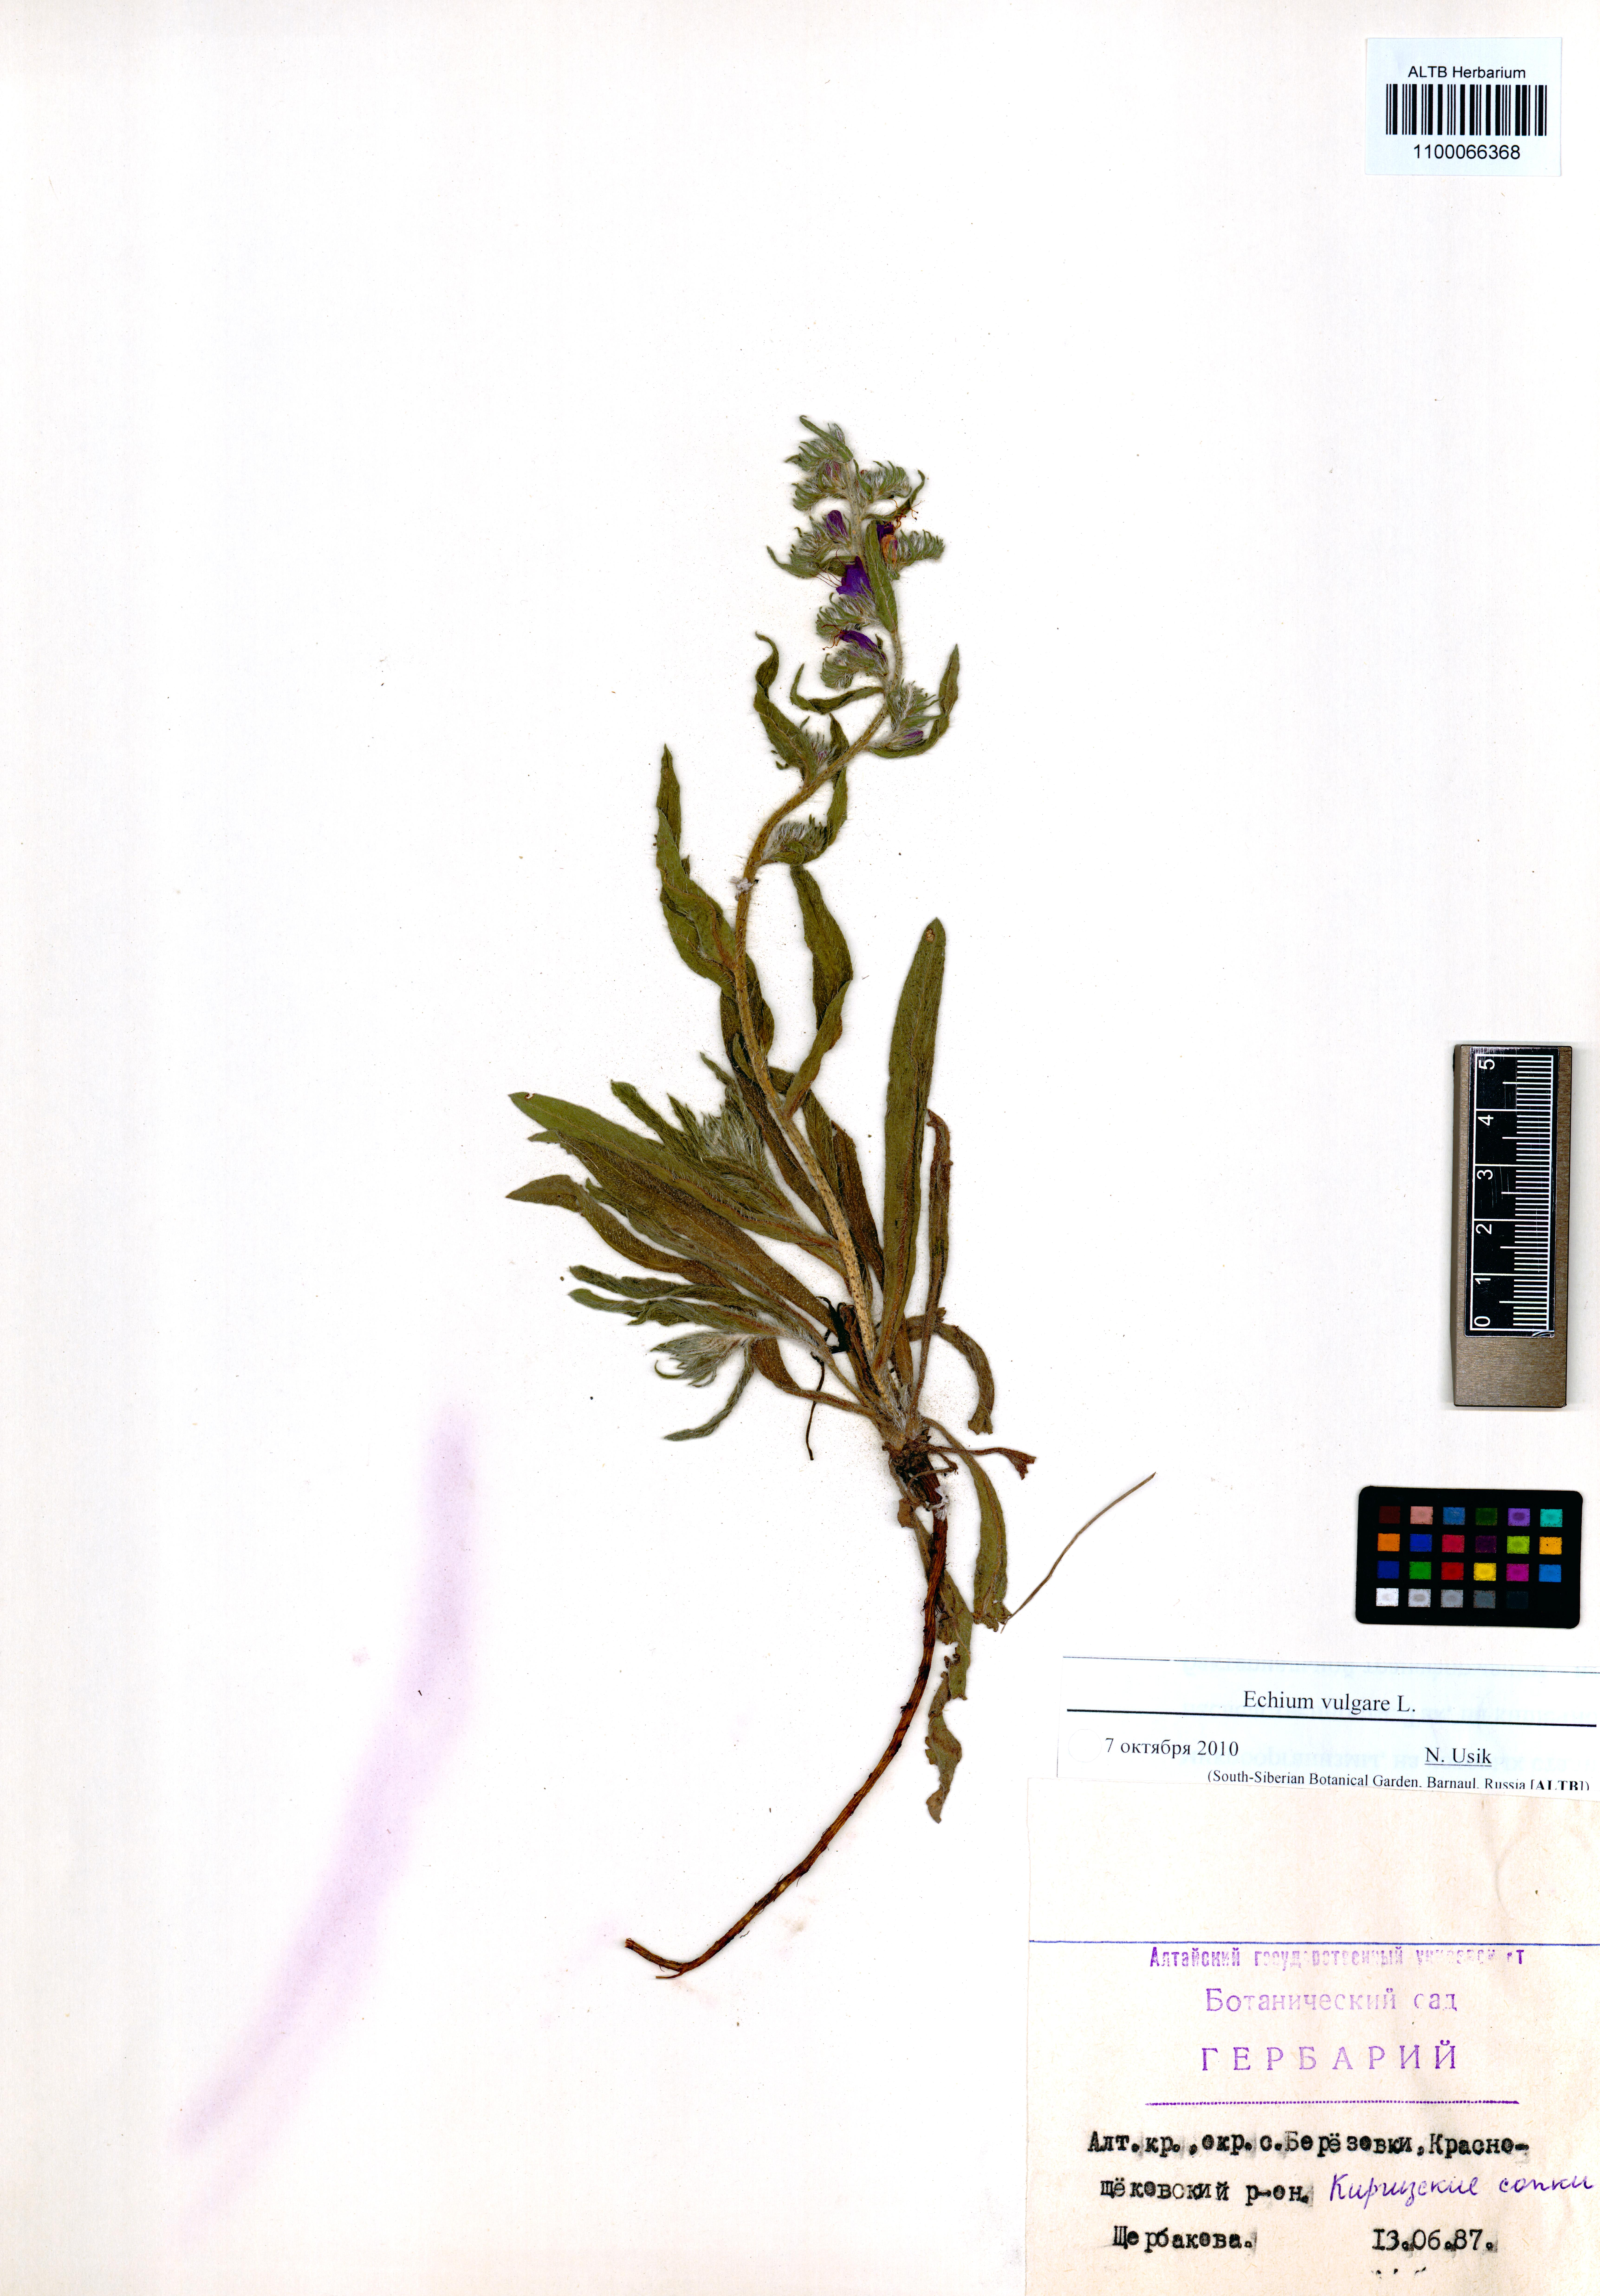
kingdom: Plantae
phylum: Tracheophyta
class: Magnoliopsida
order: Boraginales
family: Boraginaceae
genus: Echium
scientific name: Echium vulgare
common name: Common viper's bugloss
